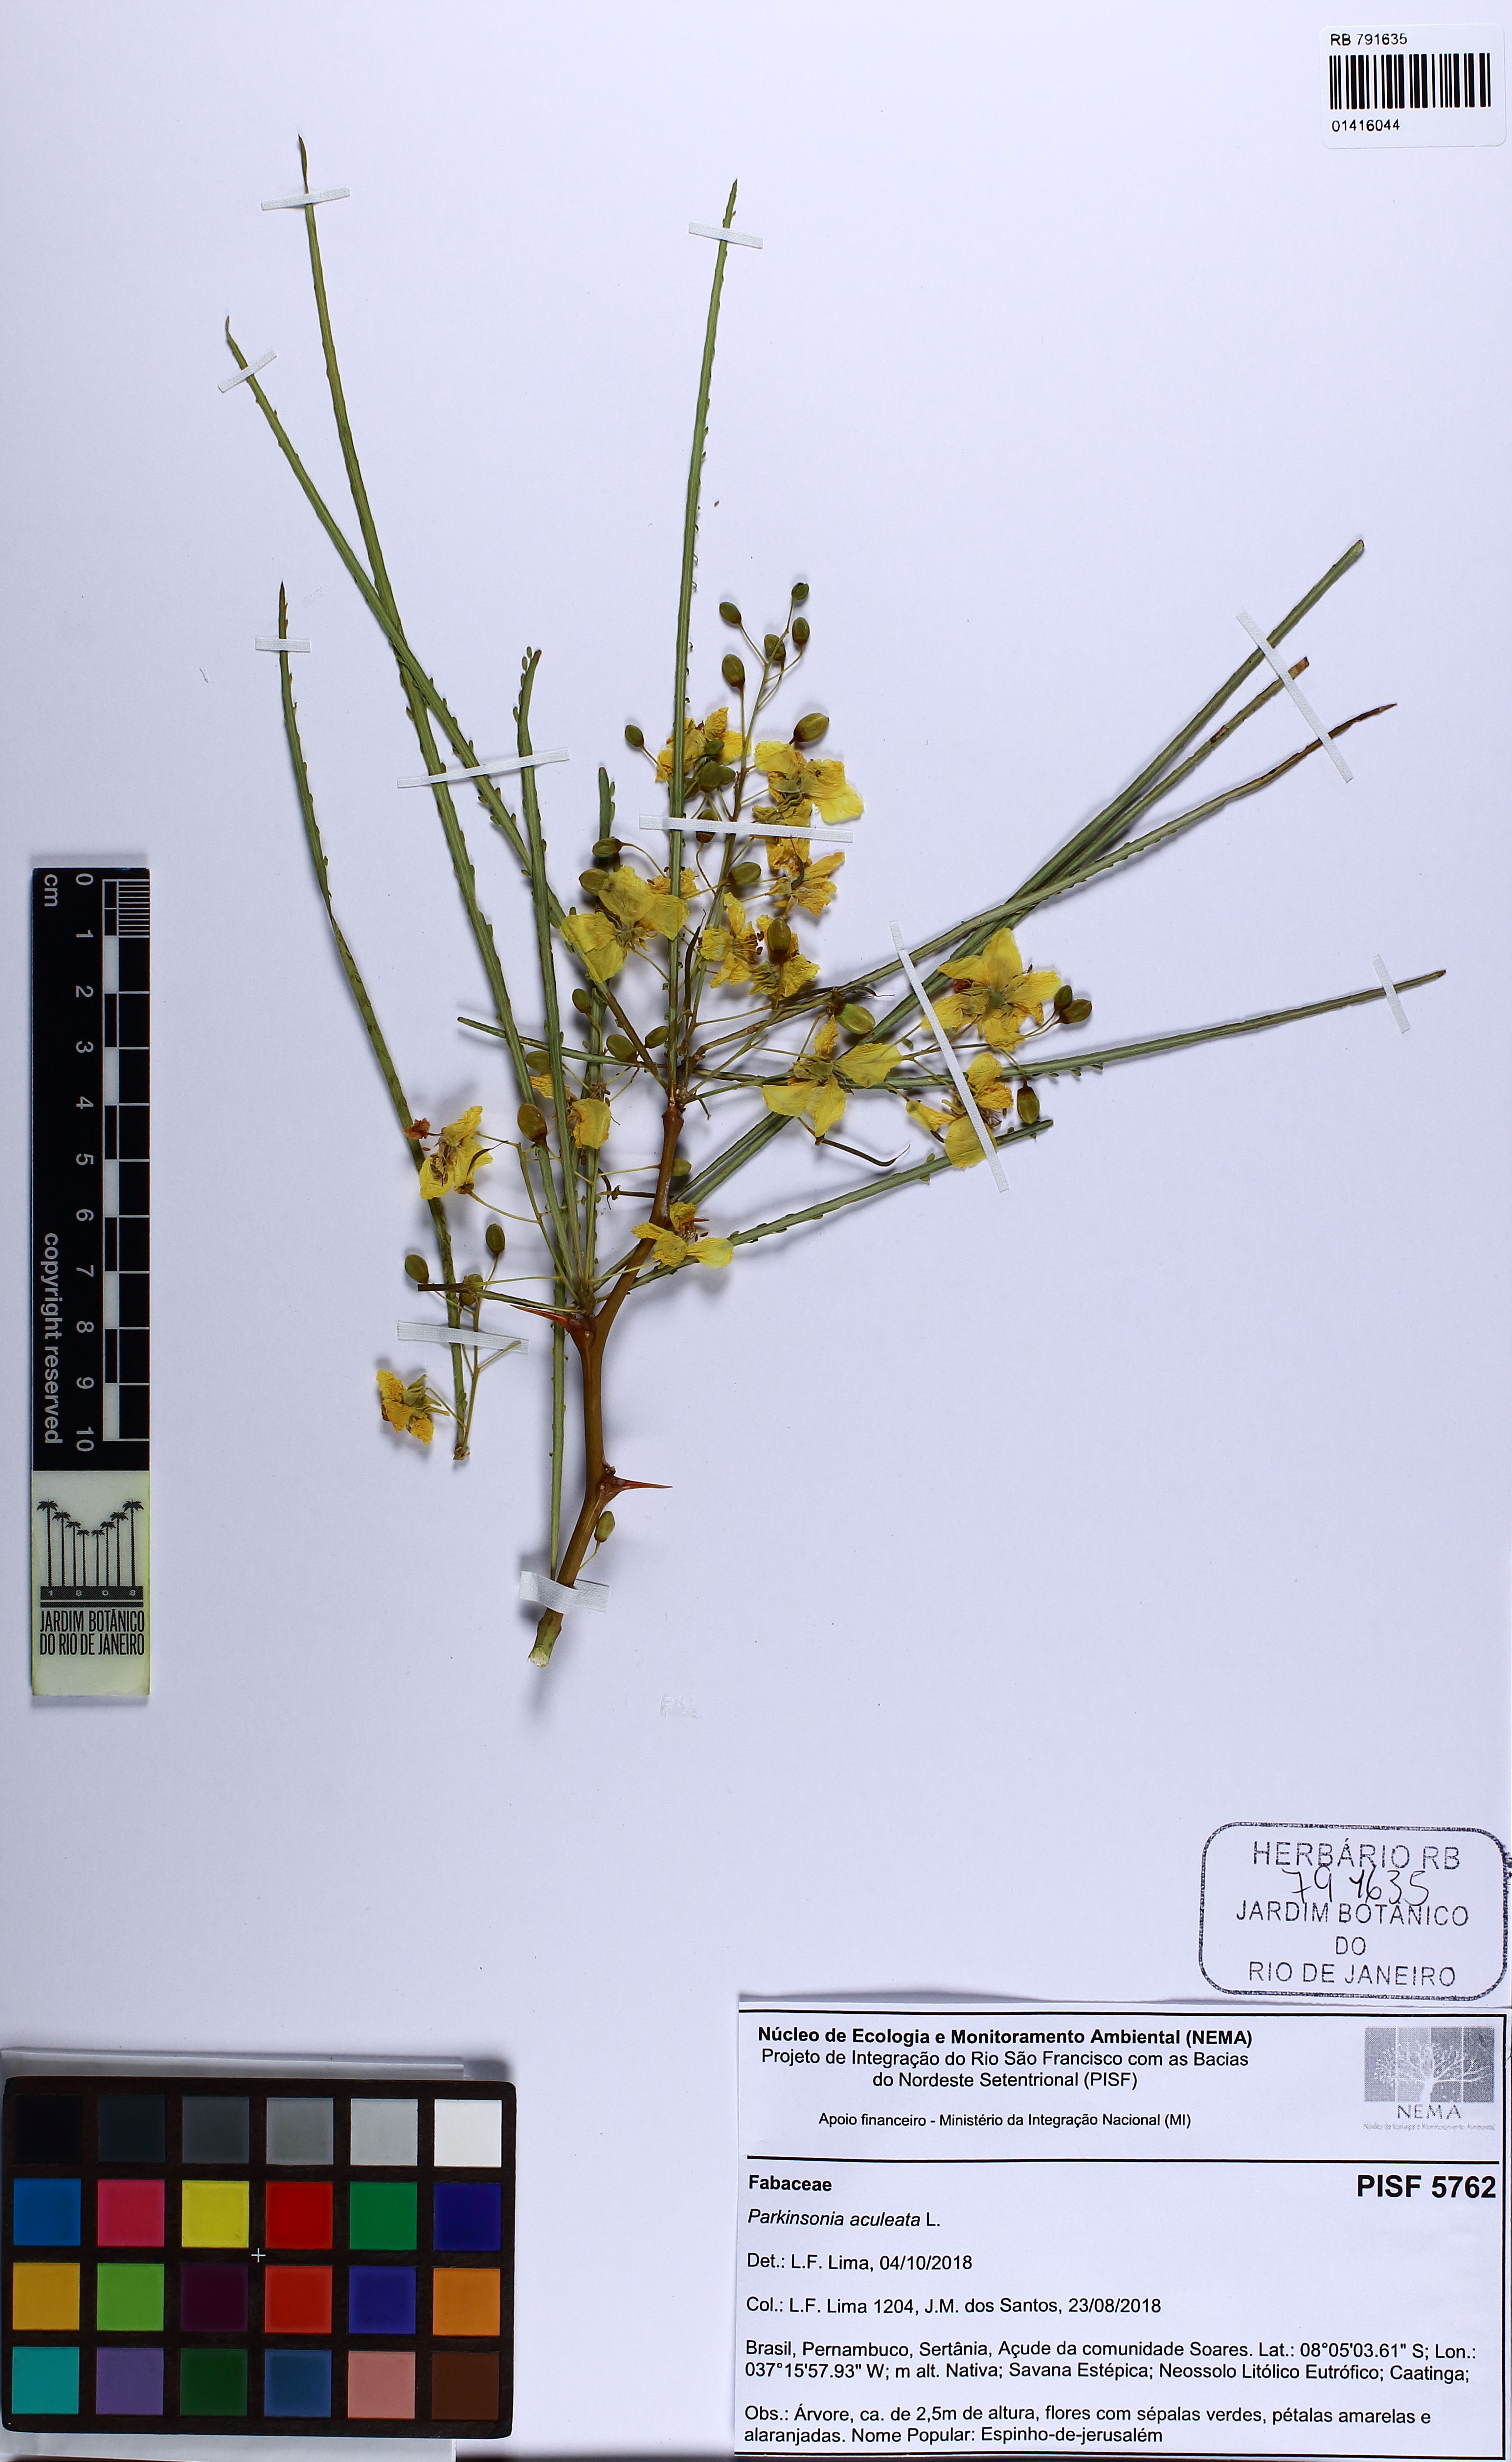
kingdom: Plantae
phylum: Tracheophyta
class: Magnoliopsida
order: Fabales
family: Fabaceae
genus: Parkinsonia
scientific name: Parkinsonia aculeata
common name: Jerusalem thorn
